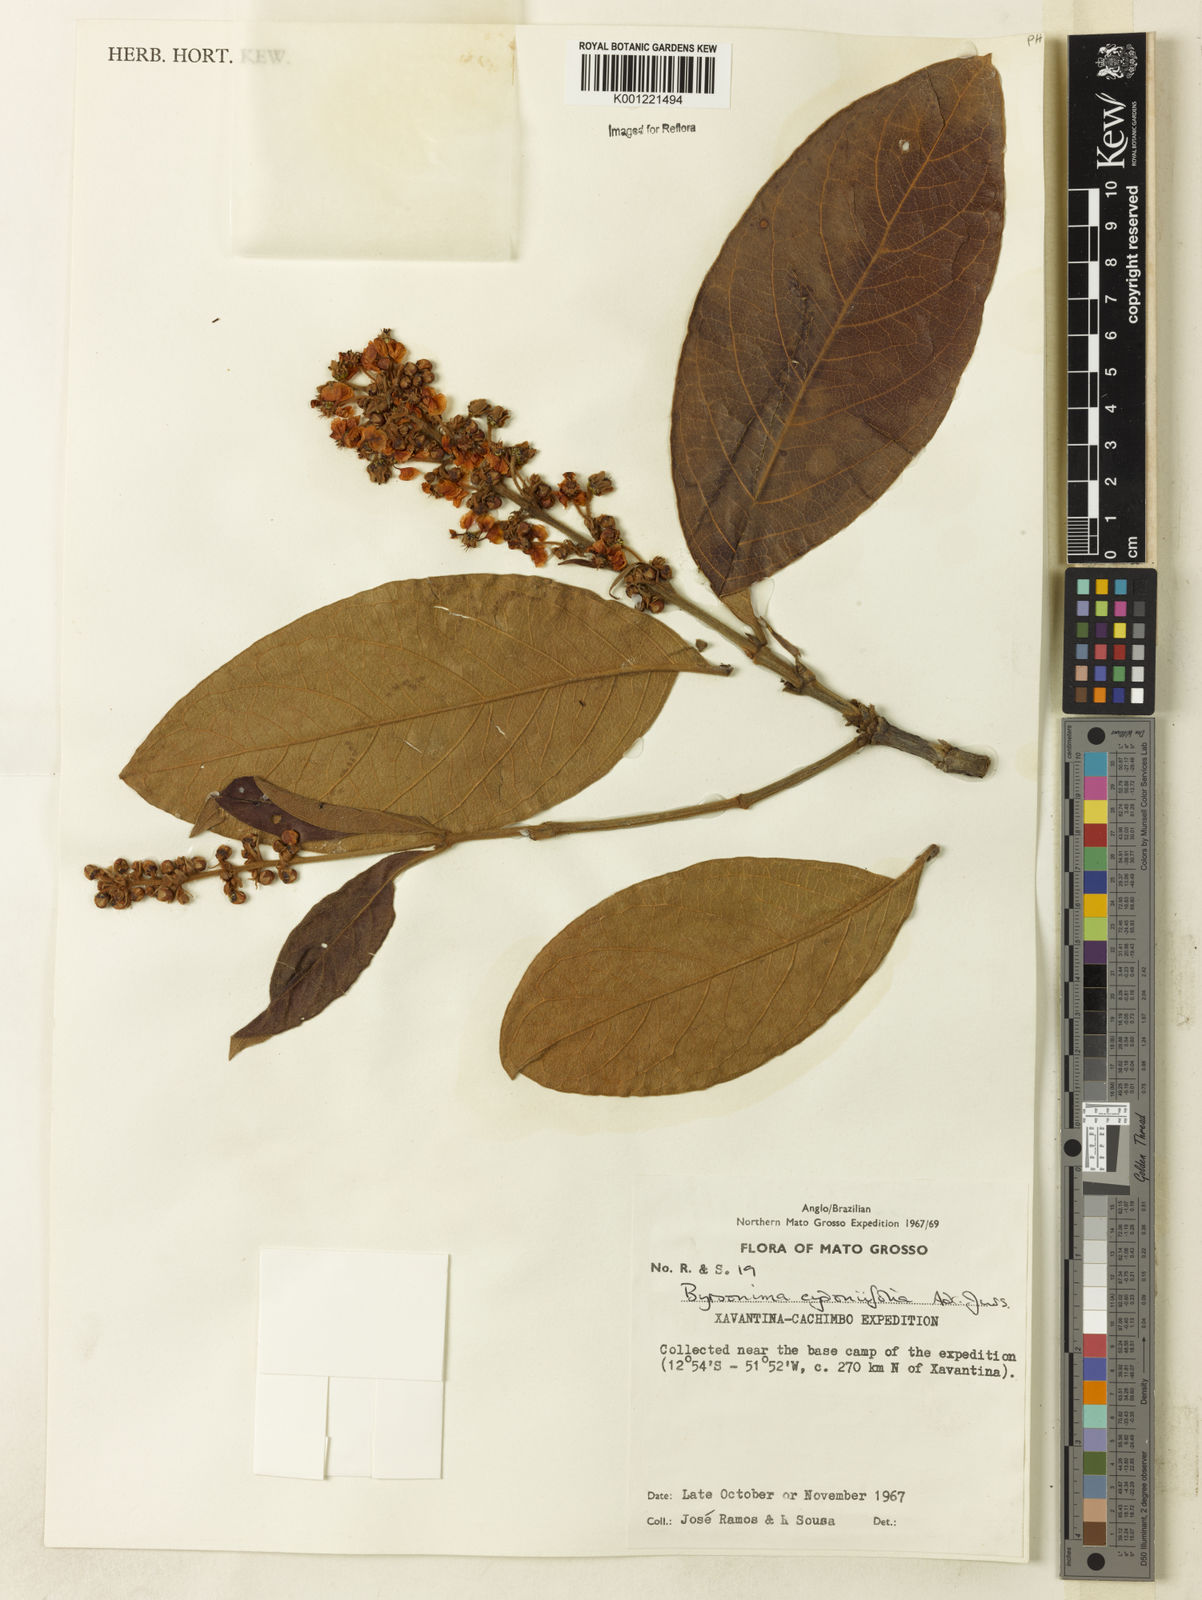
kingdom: Plantae
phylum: Tracheophyta
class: Magnoliopsida
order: Malpighiales
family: Malpighiaceae
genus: Byrsonima
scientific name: Byrsonima cydoniifolia
